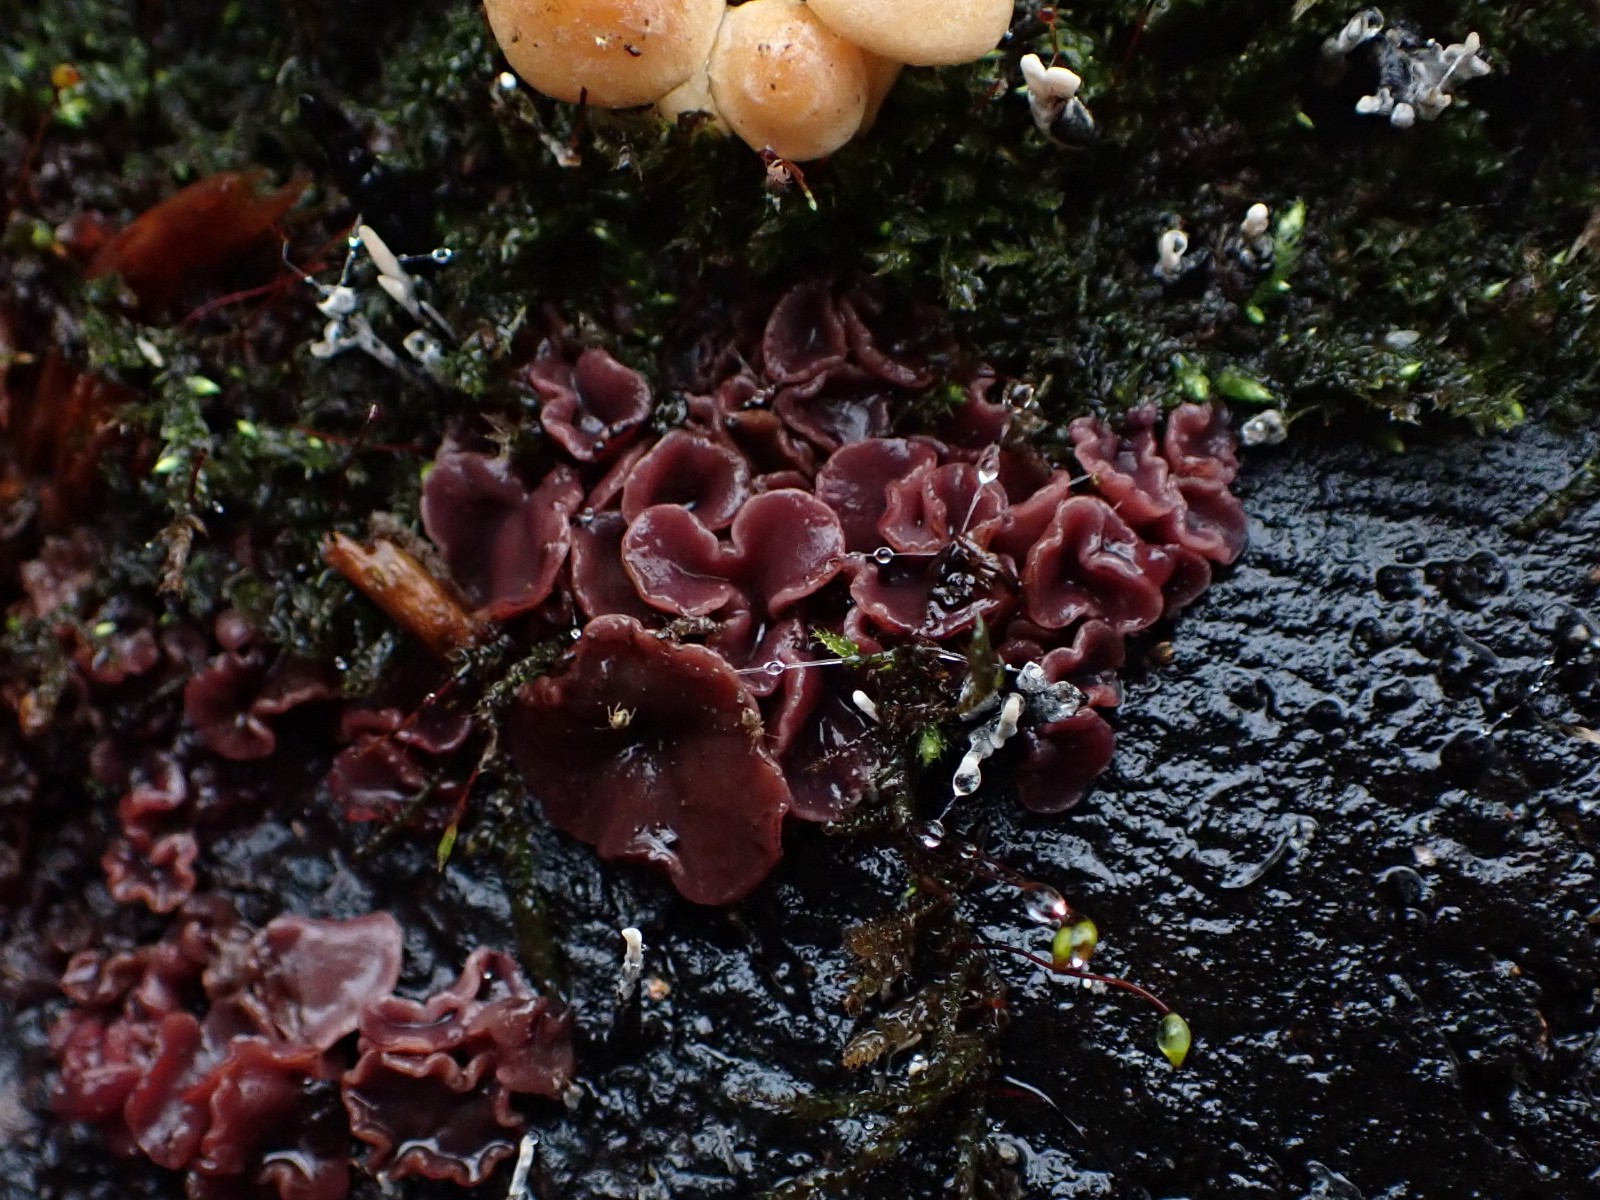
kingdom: Fungi
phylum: Ascomycota
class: Leotiomycetes
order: Helotiales
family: Gelatinodiscaceae
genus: Ascocoryne
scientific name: Ascocoryne cylichnium
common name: stor sejskive
